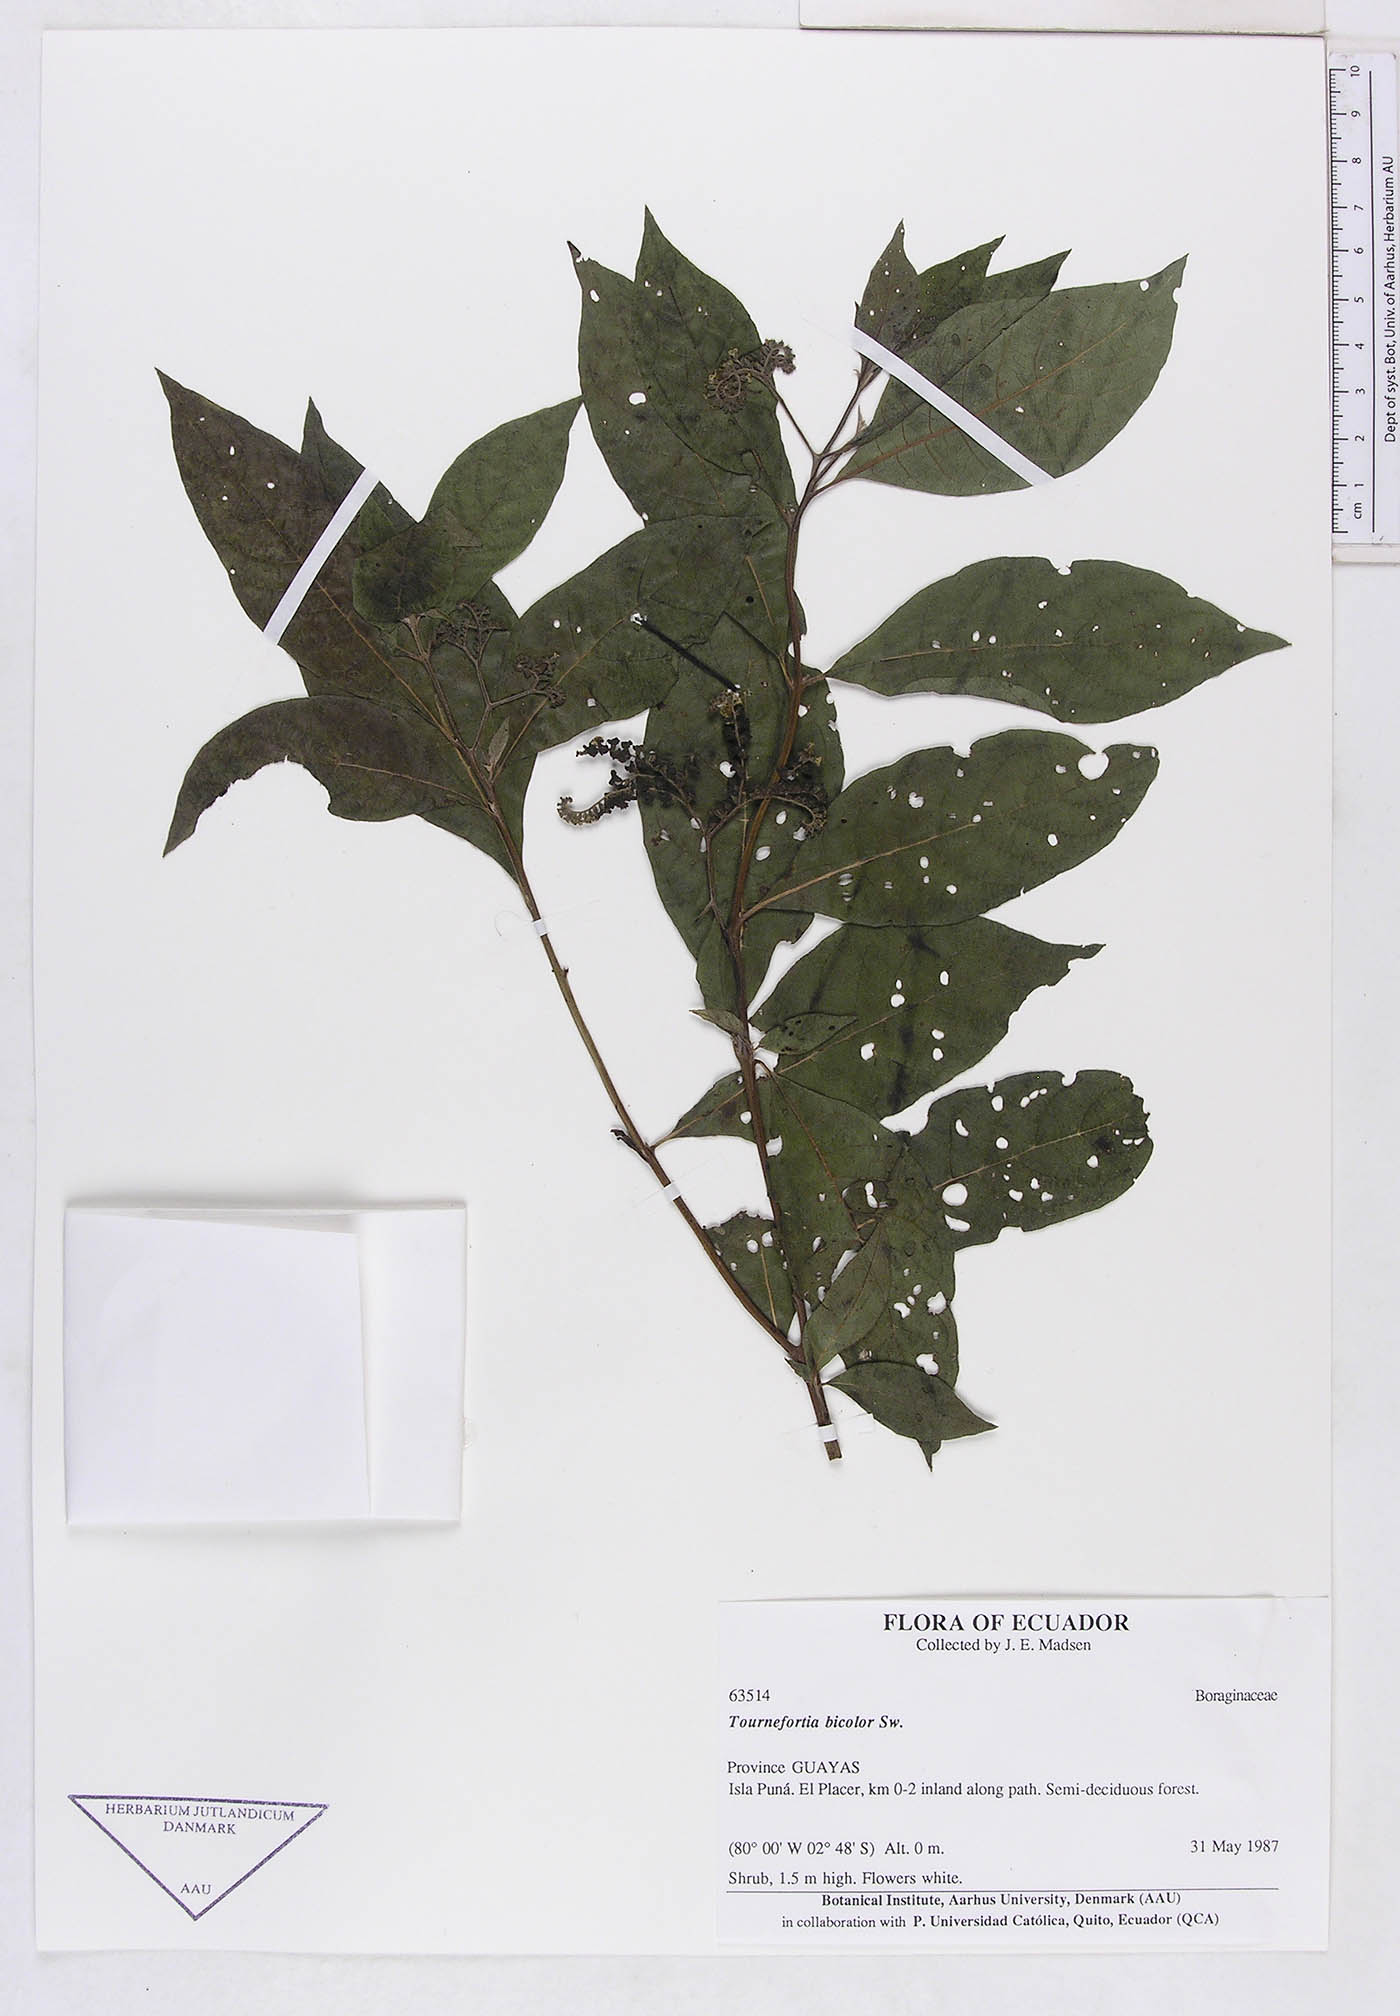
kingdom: Plantae
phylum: Tracheophyta
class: Magnoliopsida
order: Boraginales
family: Heliotropiaceae
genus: Tournefortia
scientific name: Tournefortia
